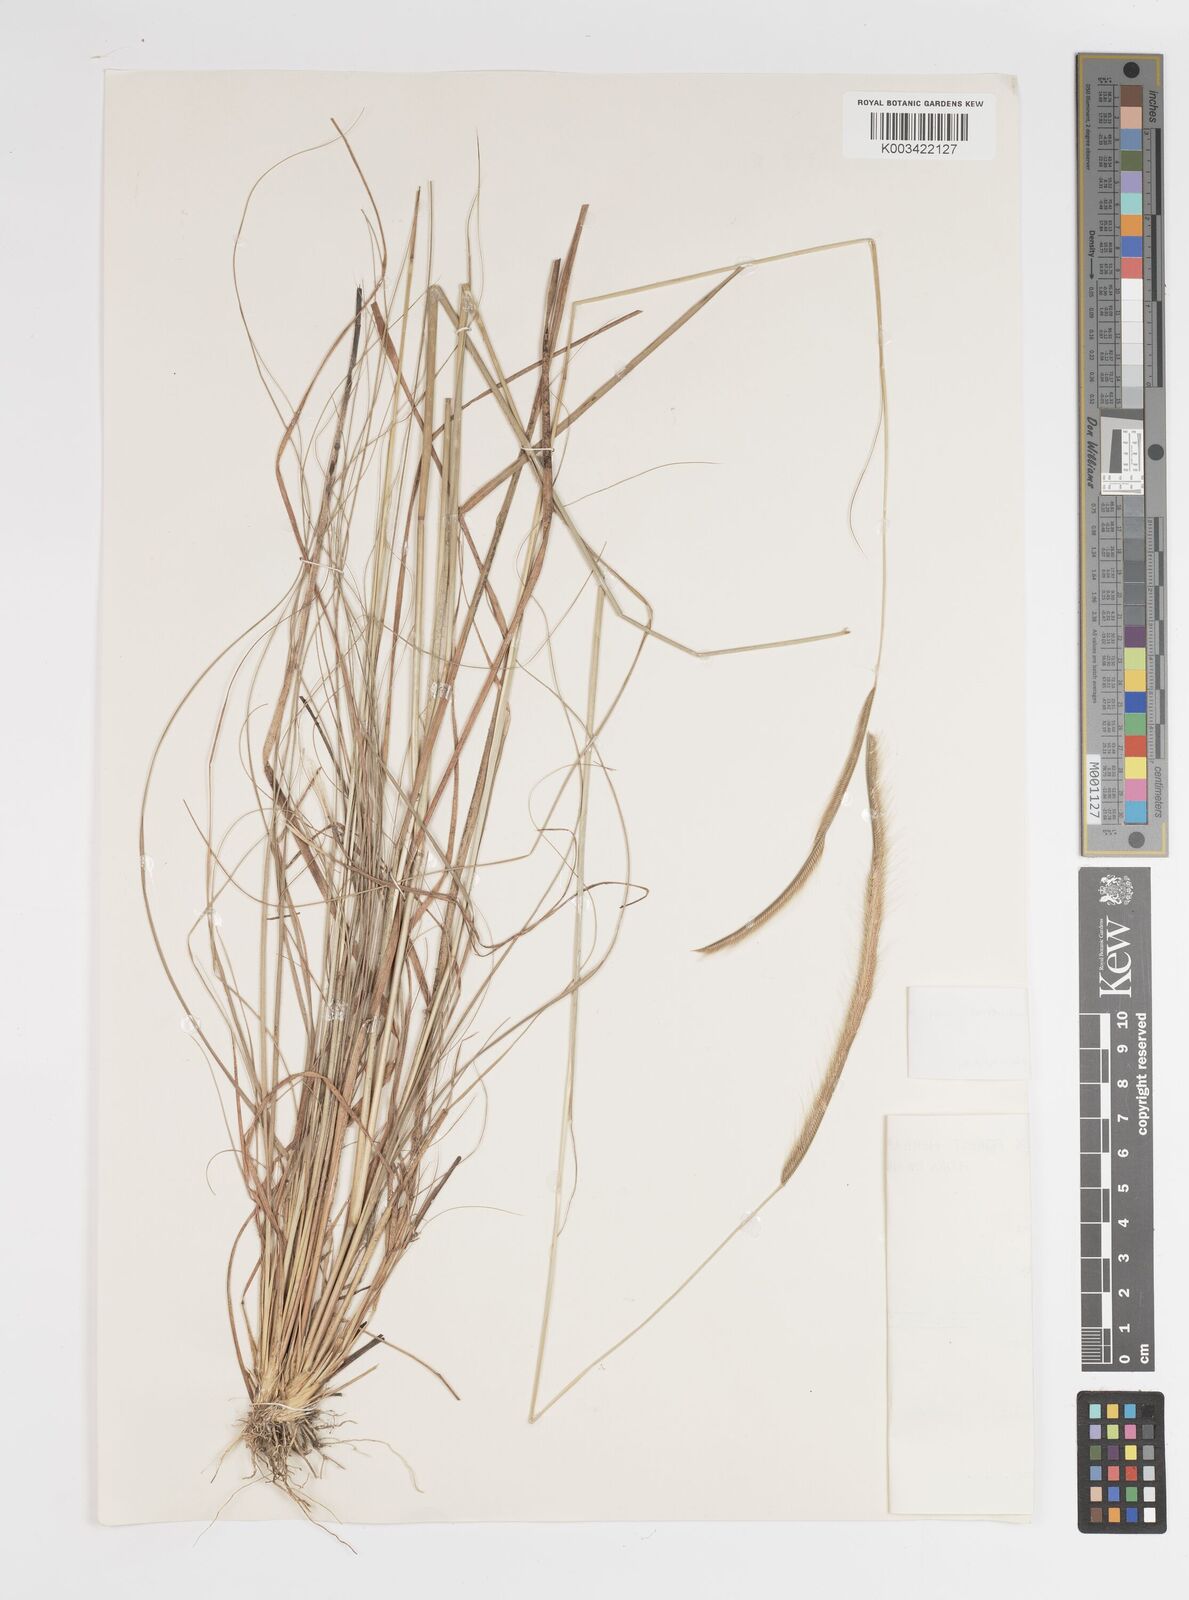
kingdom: Plantae
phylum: Tracheophyta
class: Liliopsida
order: Poales
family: Poaceae
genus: Ctenium
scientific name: Ctenium newtonii
